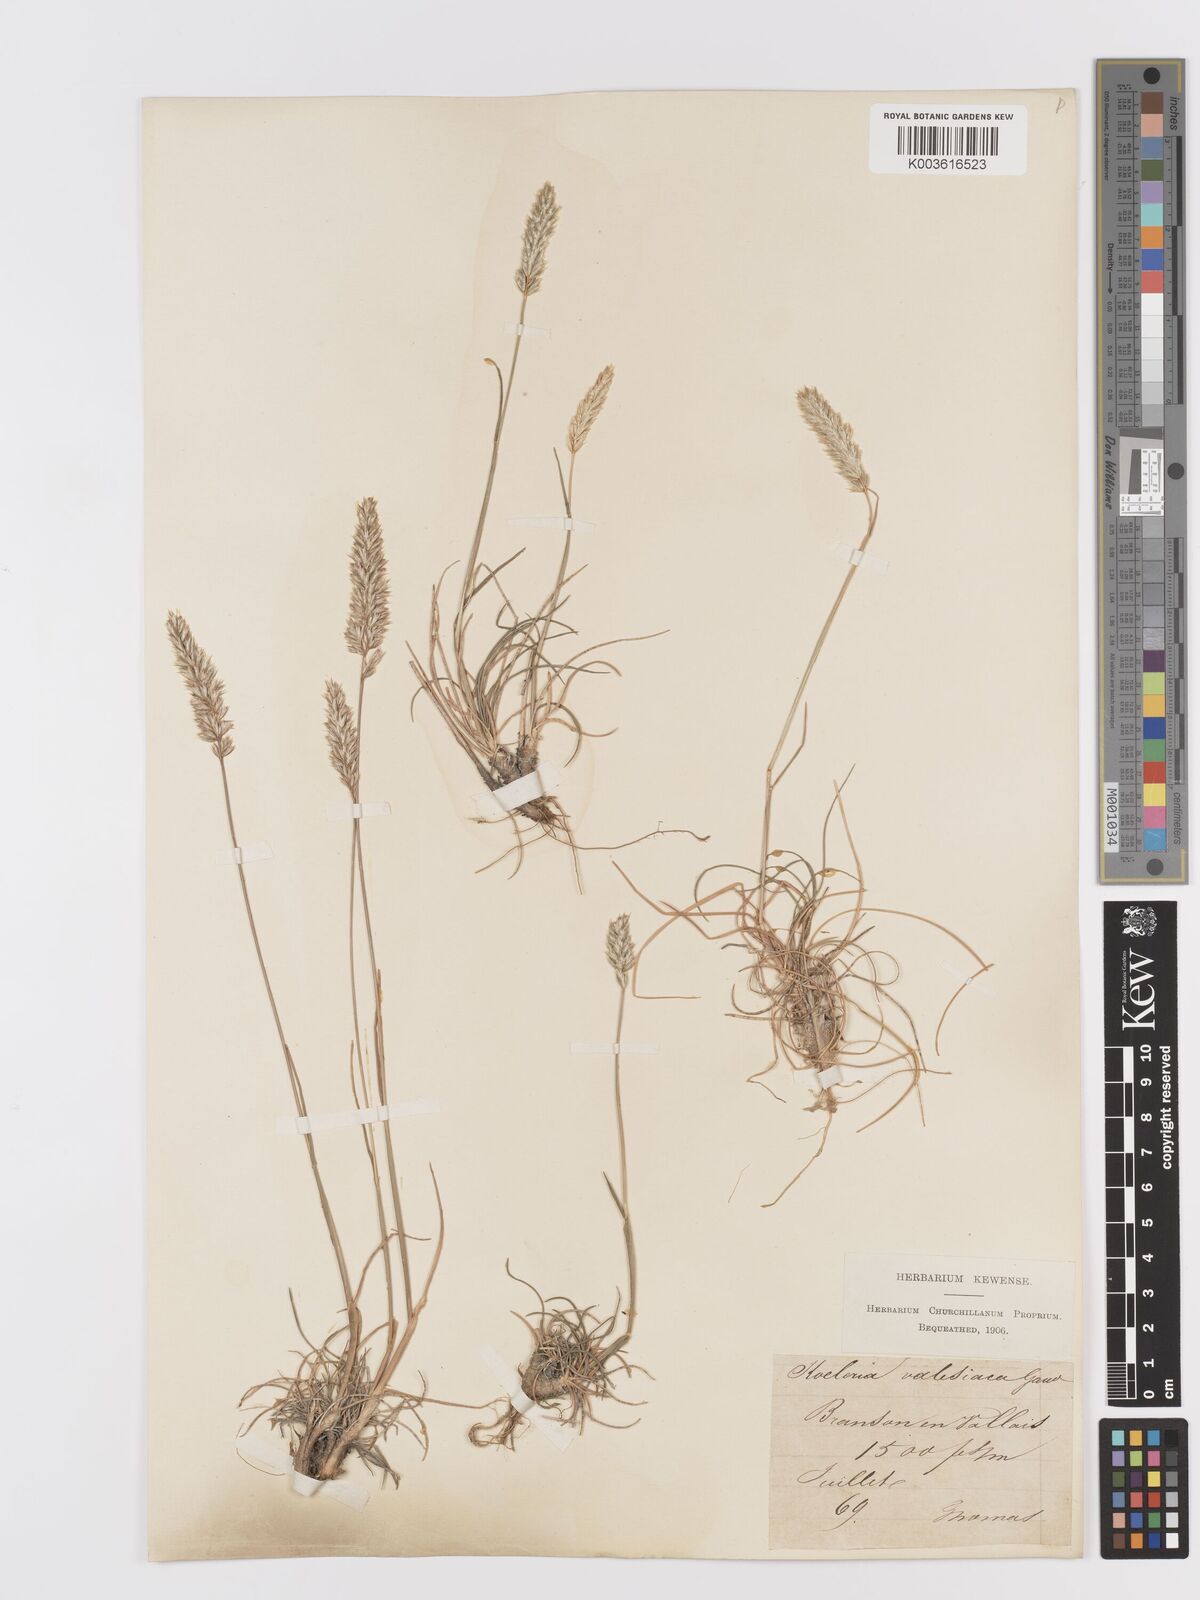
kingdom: Plantae
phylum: Tracheophyta
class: Liliopsida
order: Poales
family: Poaceae
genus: Koeleria
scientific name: Koeleria vallesiana
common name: Somerset hair-grass
